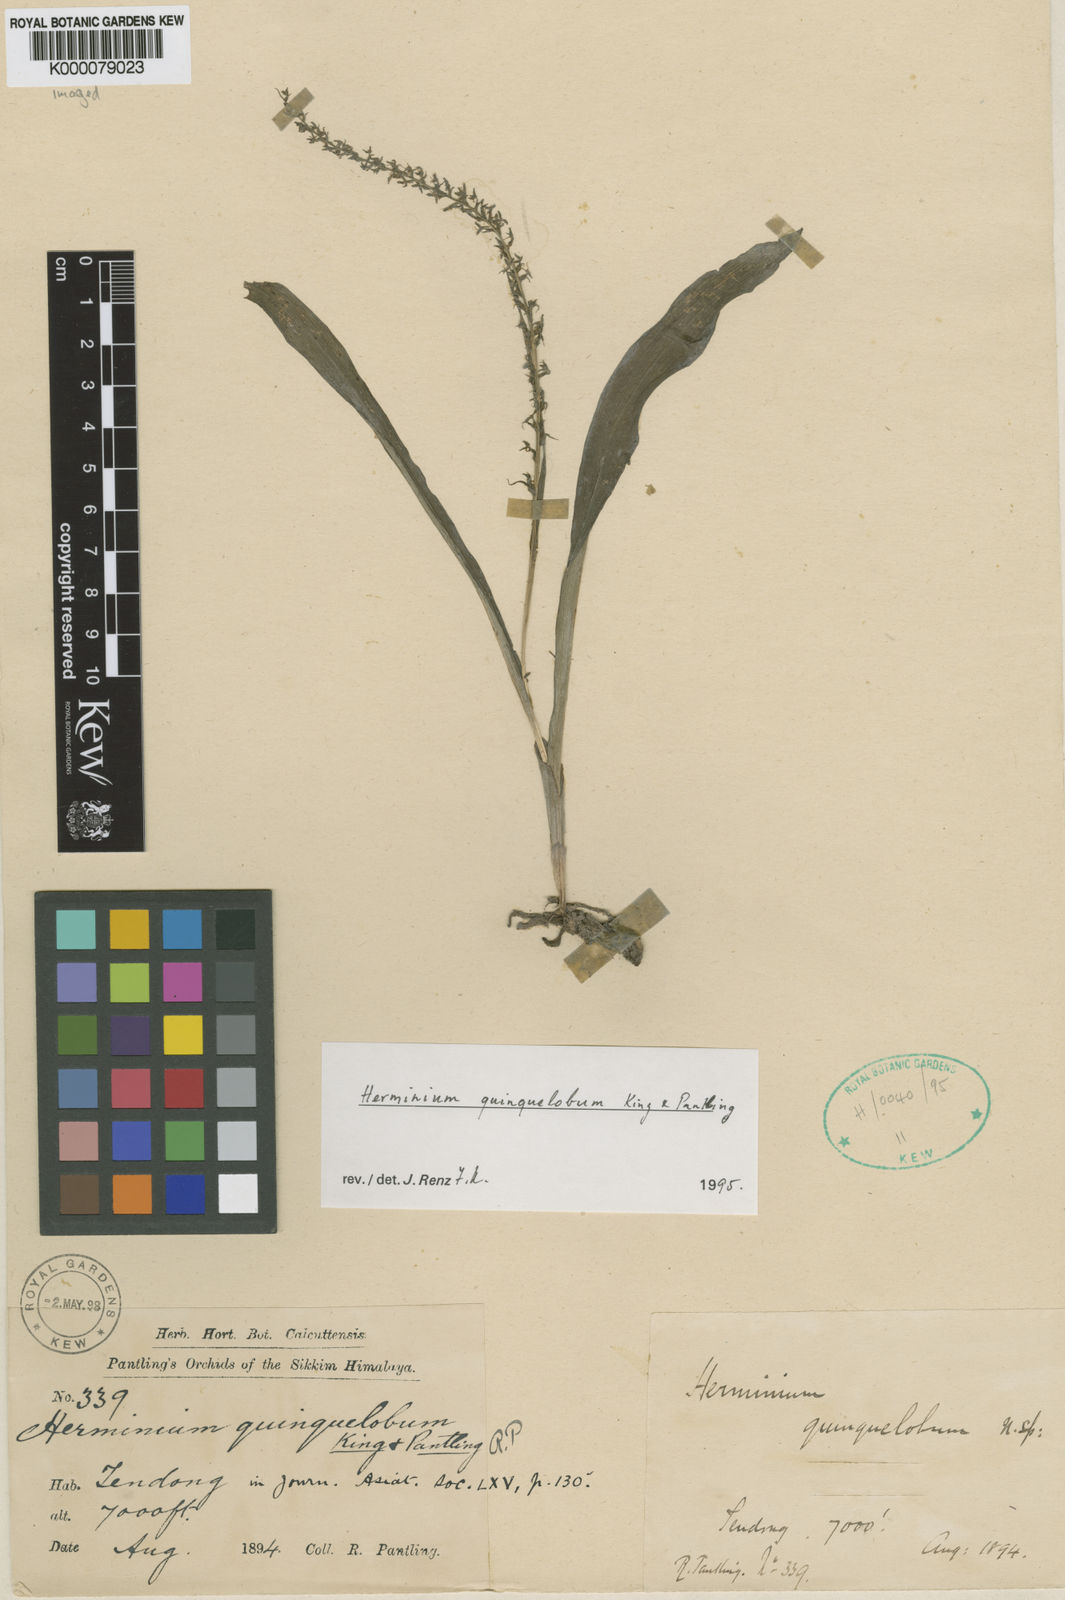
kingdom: Plantae
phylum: Tracheophyta
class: Liliopsida
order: Asparagales
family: Orchidaceae
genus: Herminium
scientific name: Herminium quinquelobum
